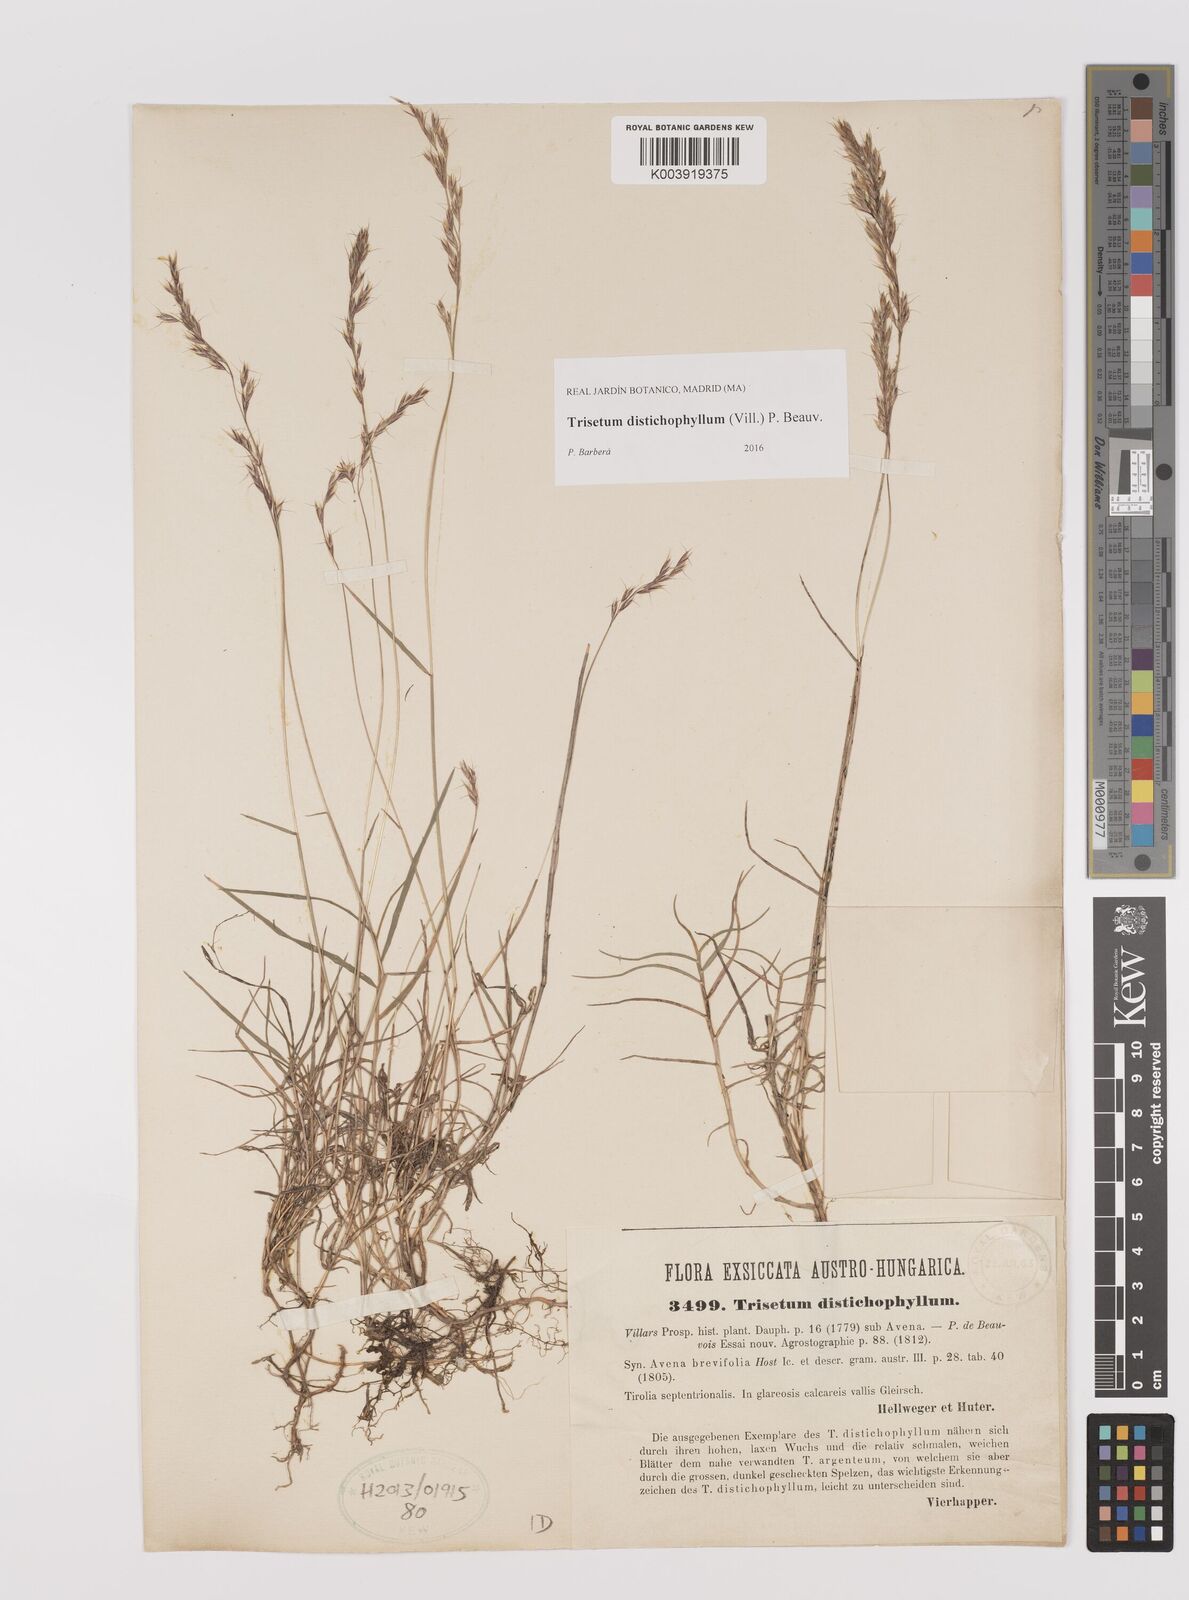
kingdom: Plantae
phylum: Tracheophyta
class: Liliopsida
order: Poales
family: Poaceae
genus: Acrospelion
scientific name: Acrospelion distichophyllum
